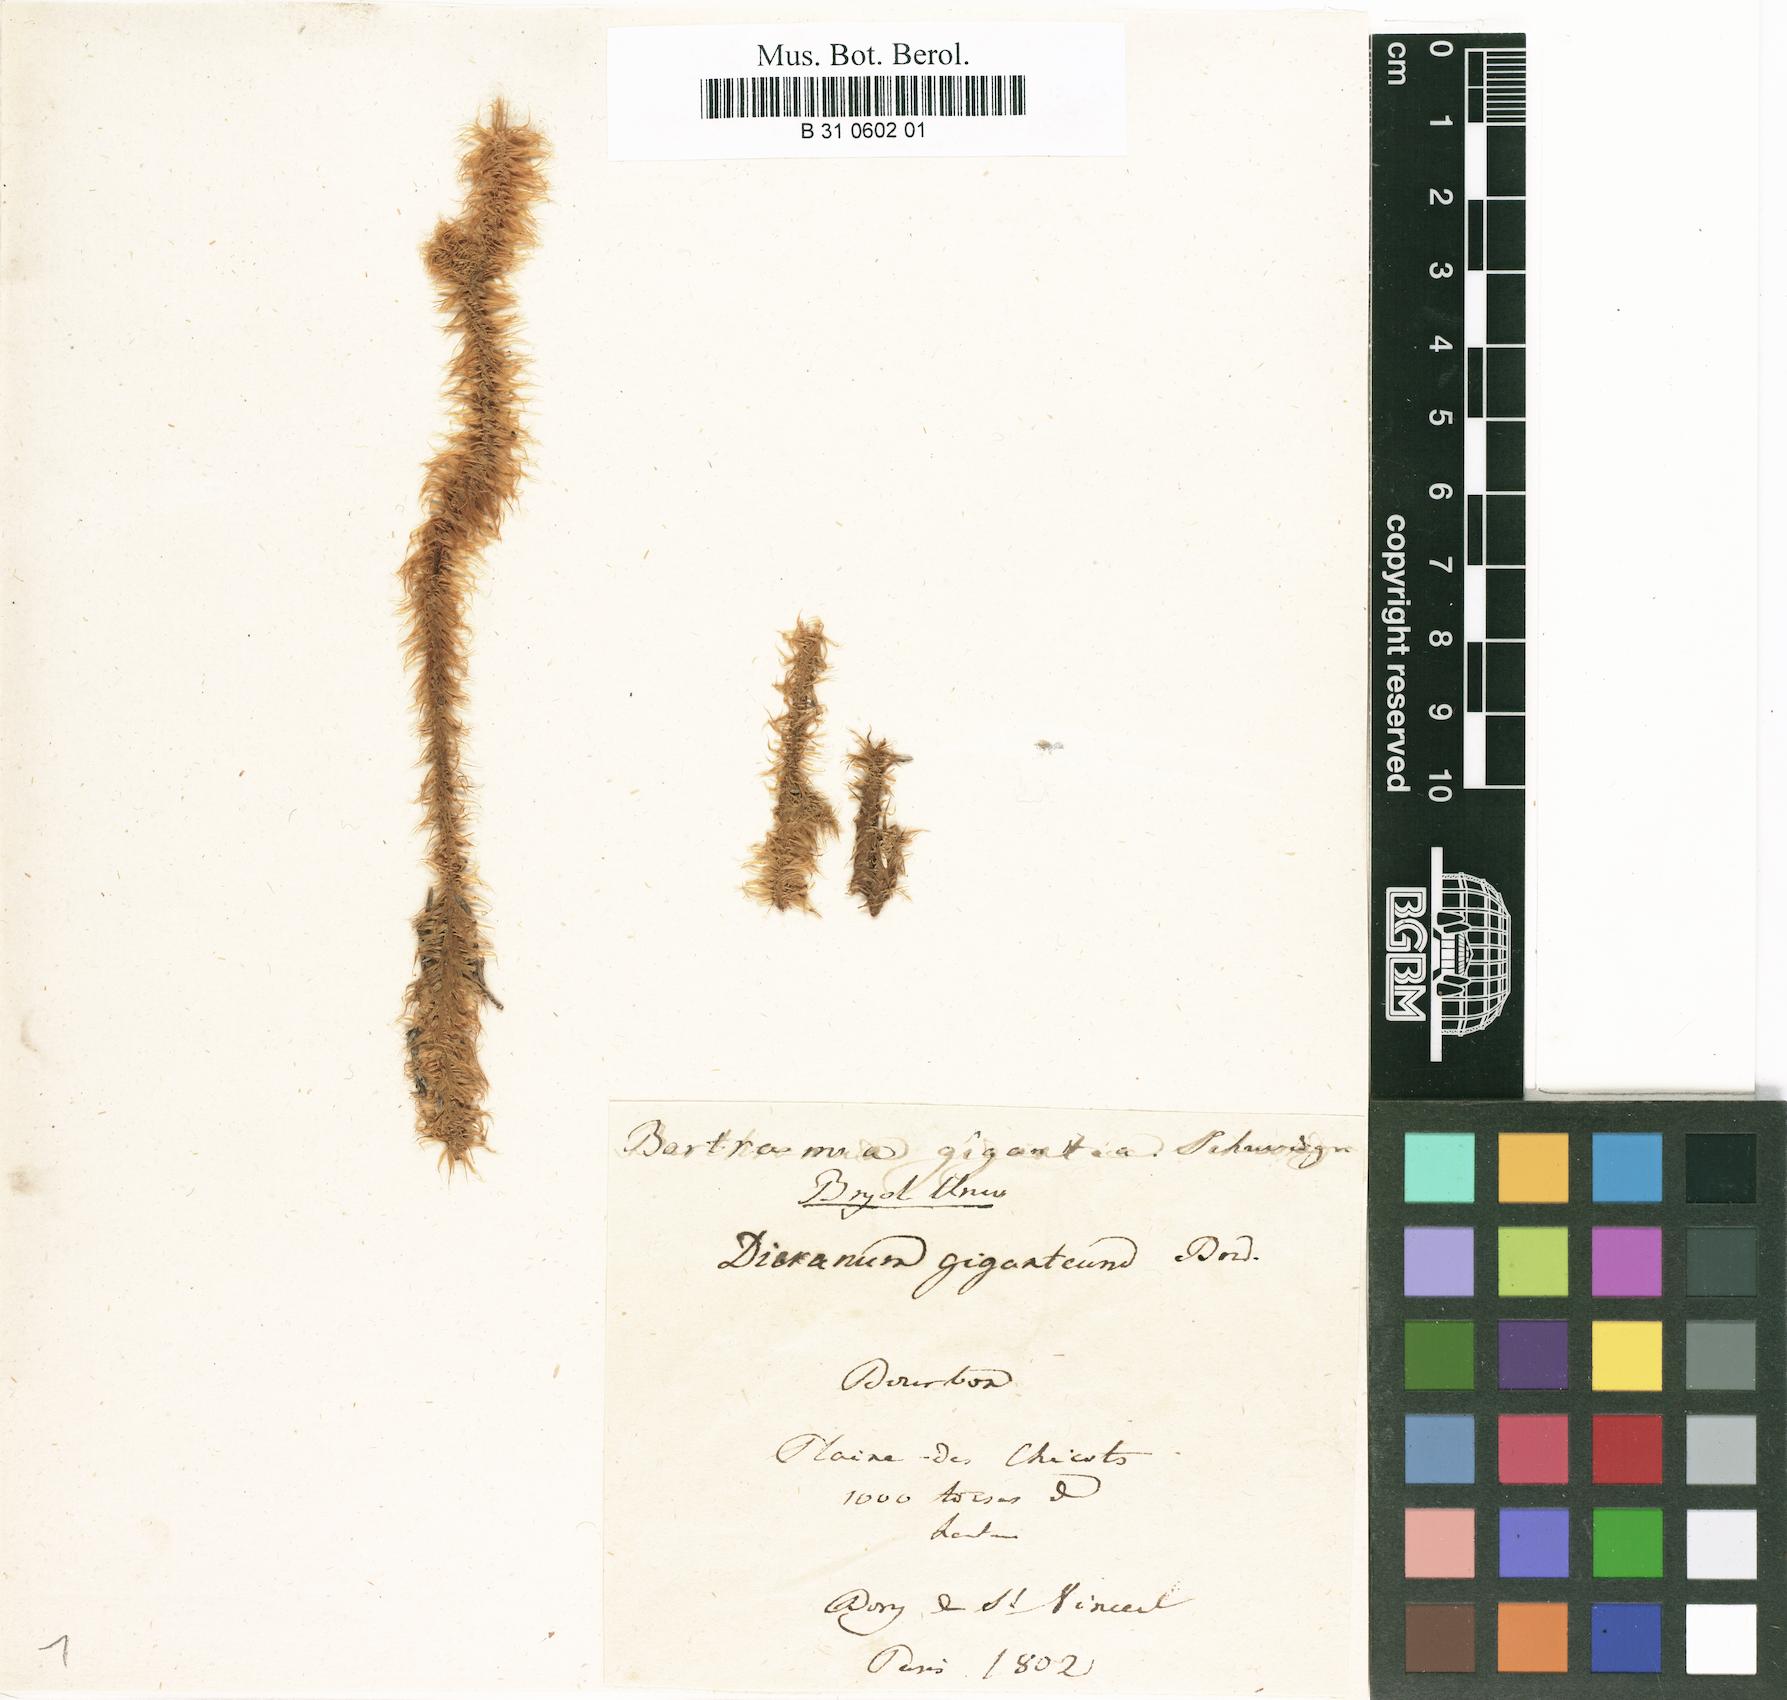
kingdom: Plantae
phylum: Bryophyta
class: Bryopsida
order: Bartramiales
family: Bartramiaceae
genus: Bartramia
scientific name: Bartramia gigantea
